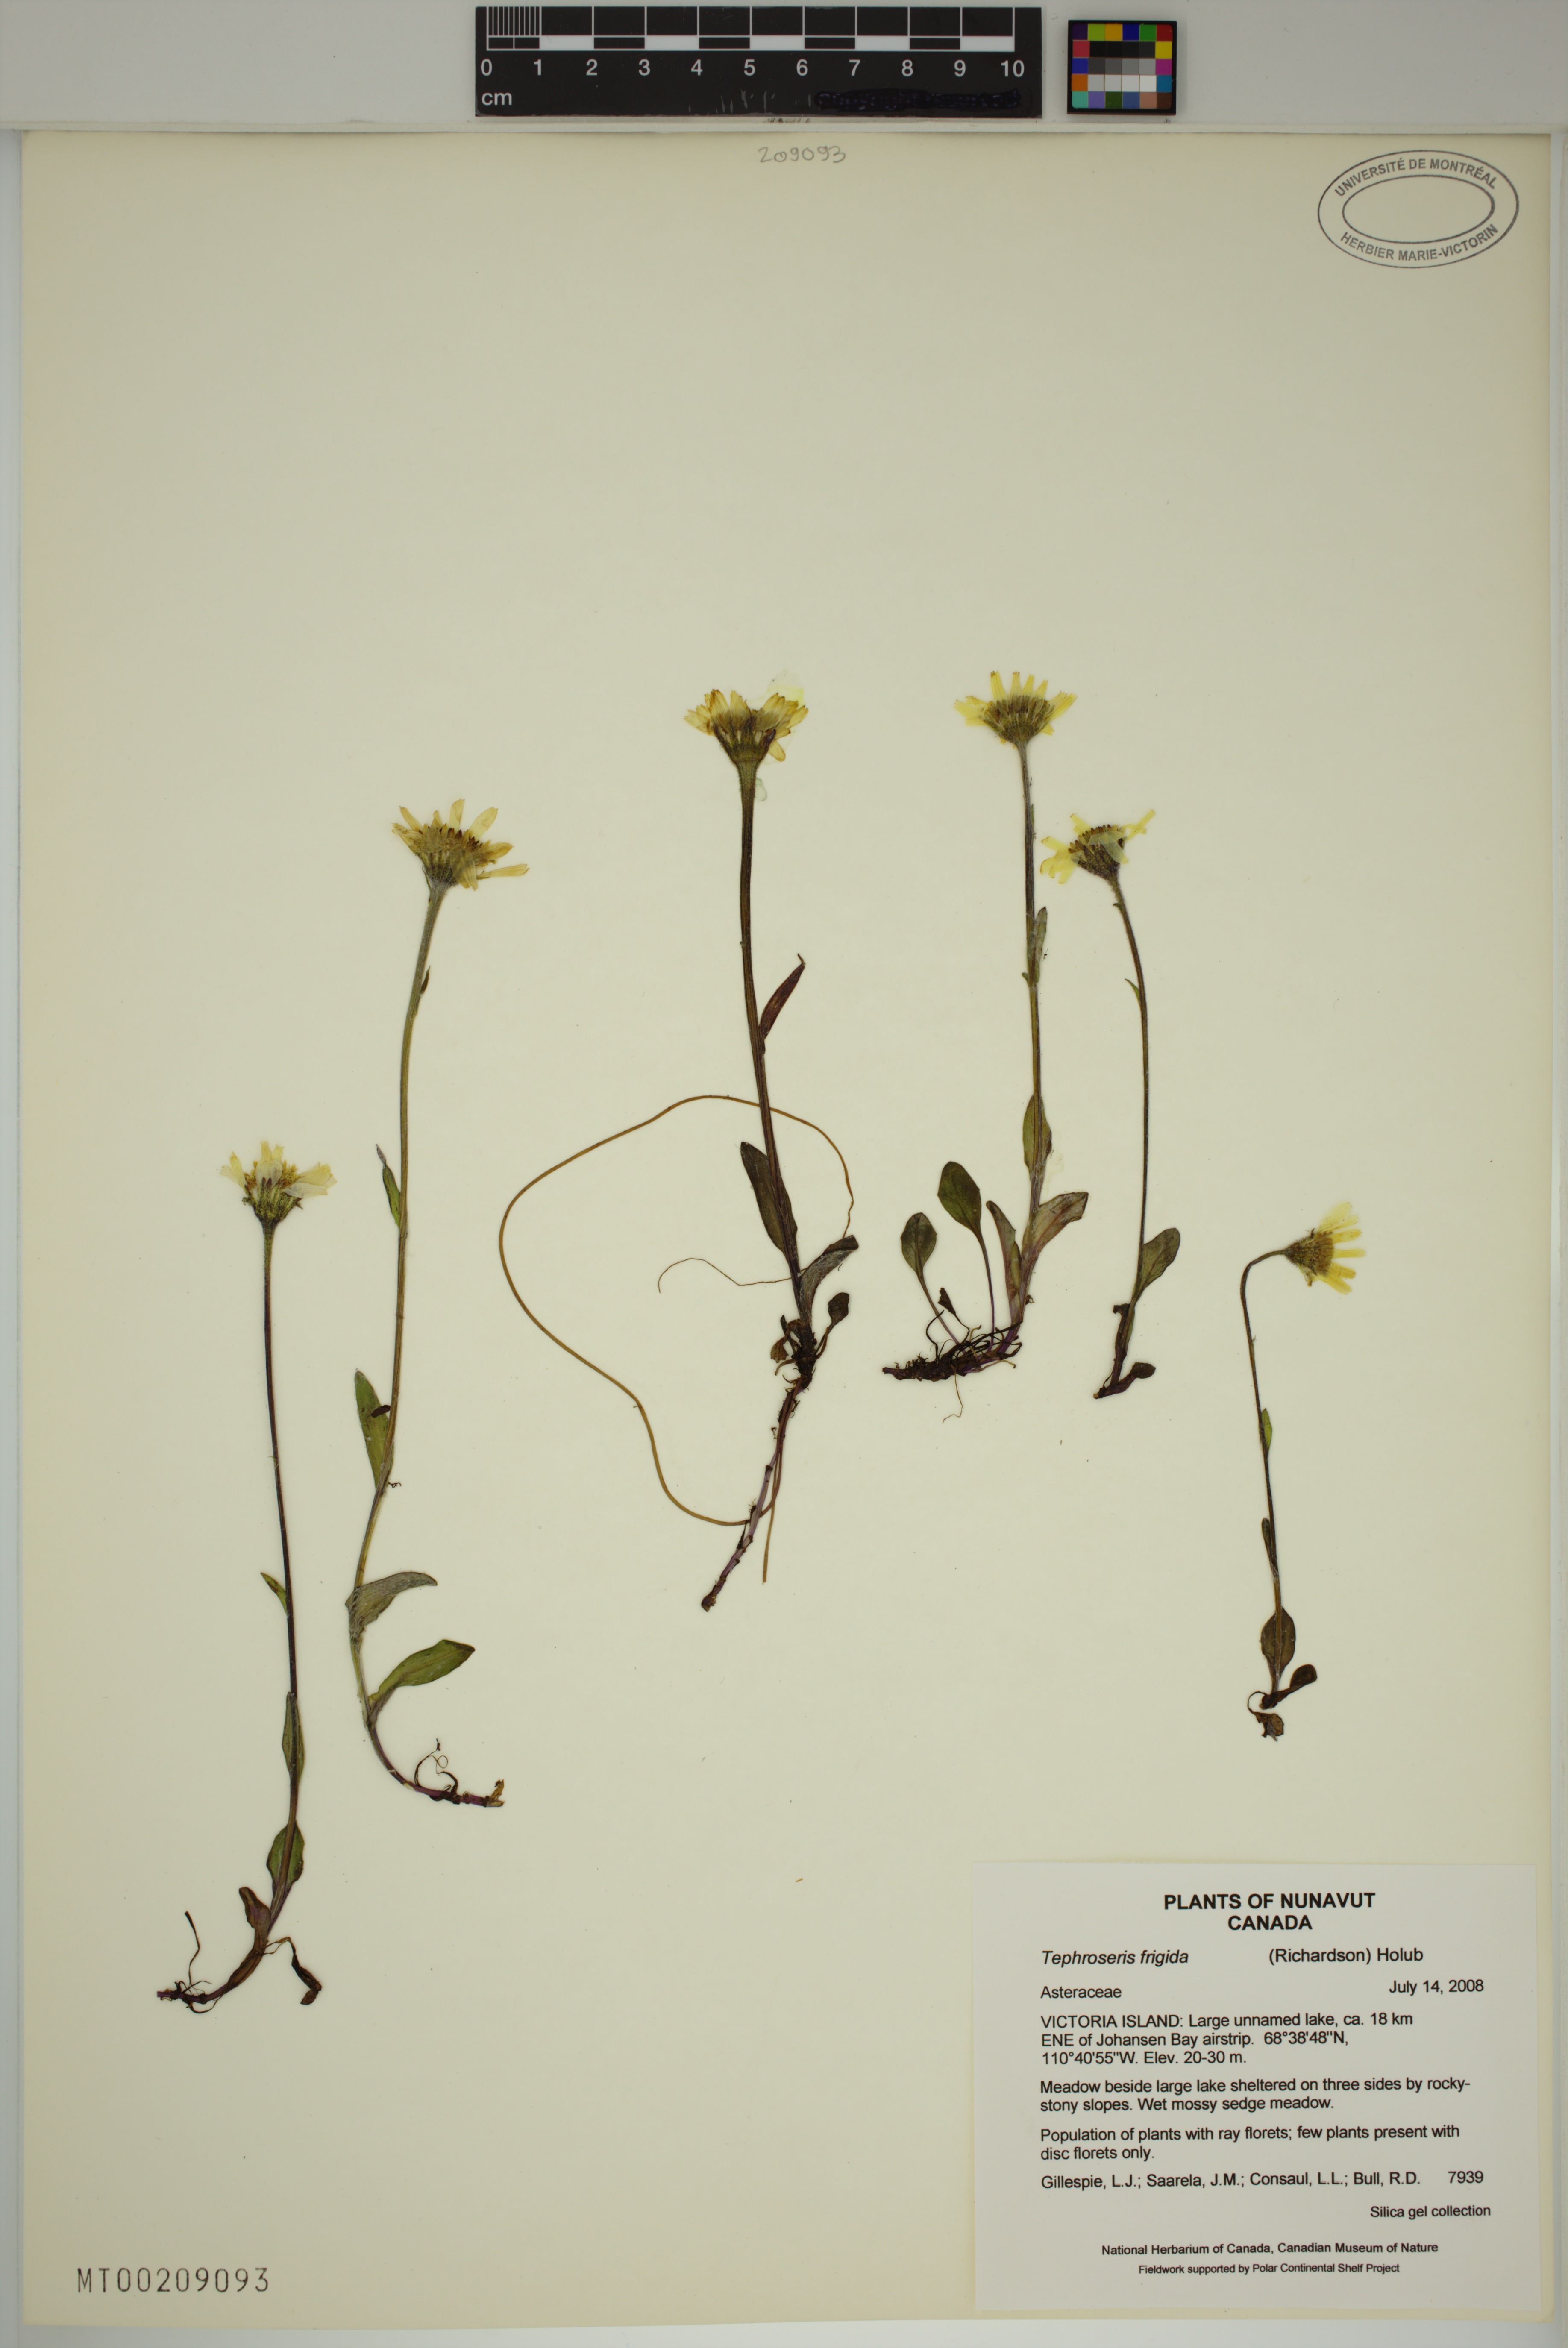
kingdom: Plantae
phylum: Tracheophyta
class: Magnoliopsida
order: Asterales
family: Asteraceae
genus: Tephroseris
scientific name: Tephroseris frigida
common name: Arctic groundsel
